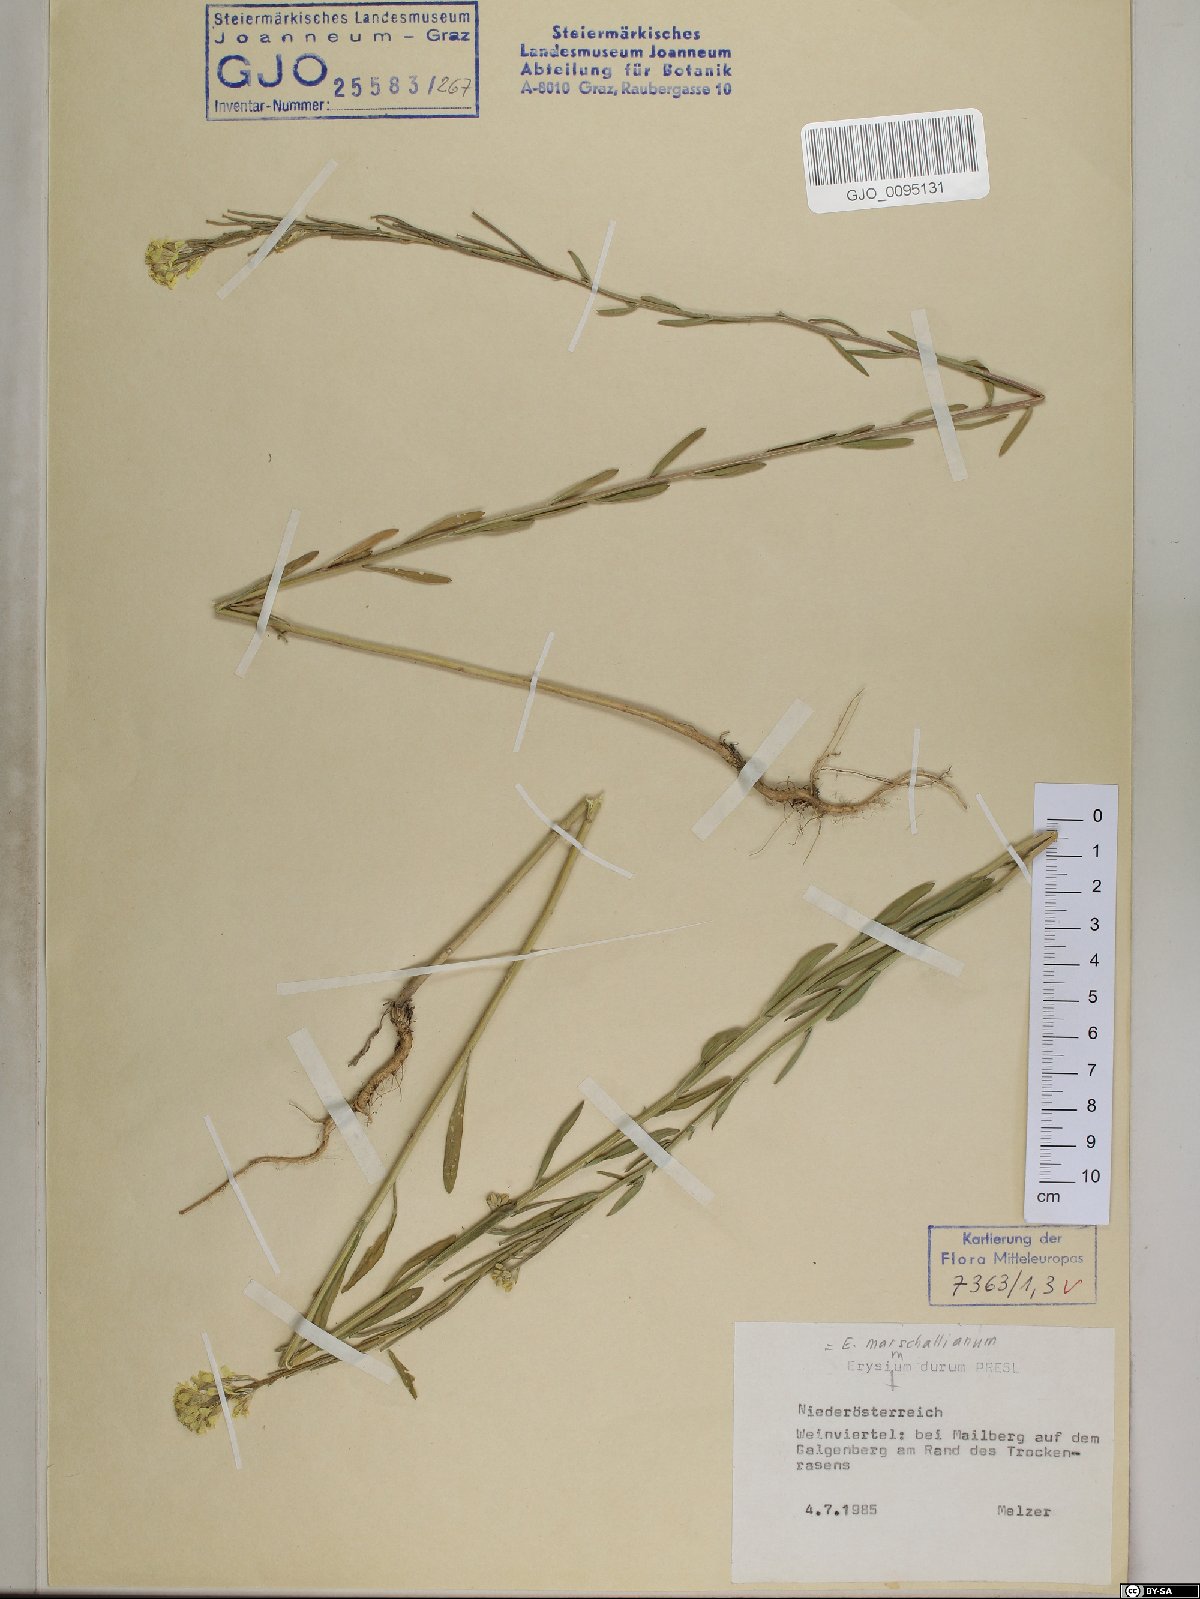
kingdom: Plantae
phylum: Tracheophyta
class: Magnoliopsida
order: Brassicales
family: Brassicaceae
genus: Erysimum
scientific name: Erysimum marschallianum
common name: Hard wallflower
